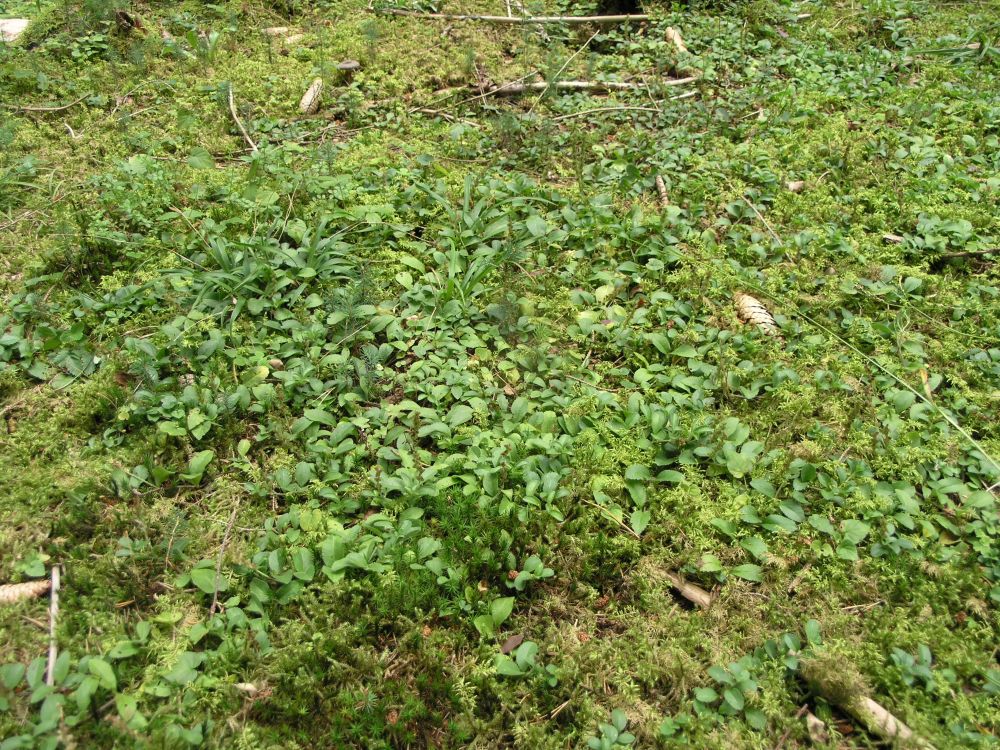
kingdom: Plantae
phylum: Tracheophyta
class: Magnoliopsida
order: Lamiales
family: Plantaginaceae
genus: Veronica
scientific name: Veronica officinalis
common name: Common speedwell
